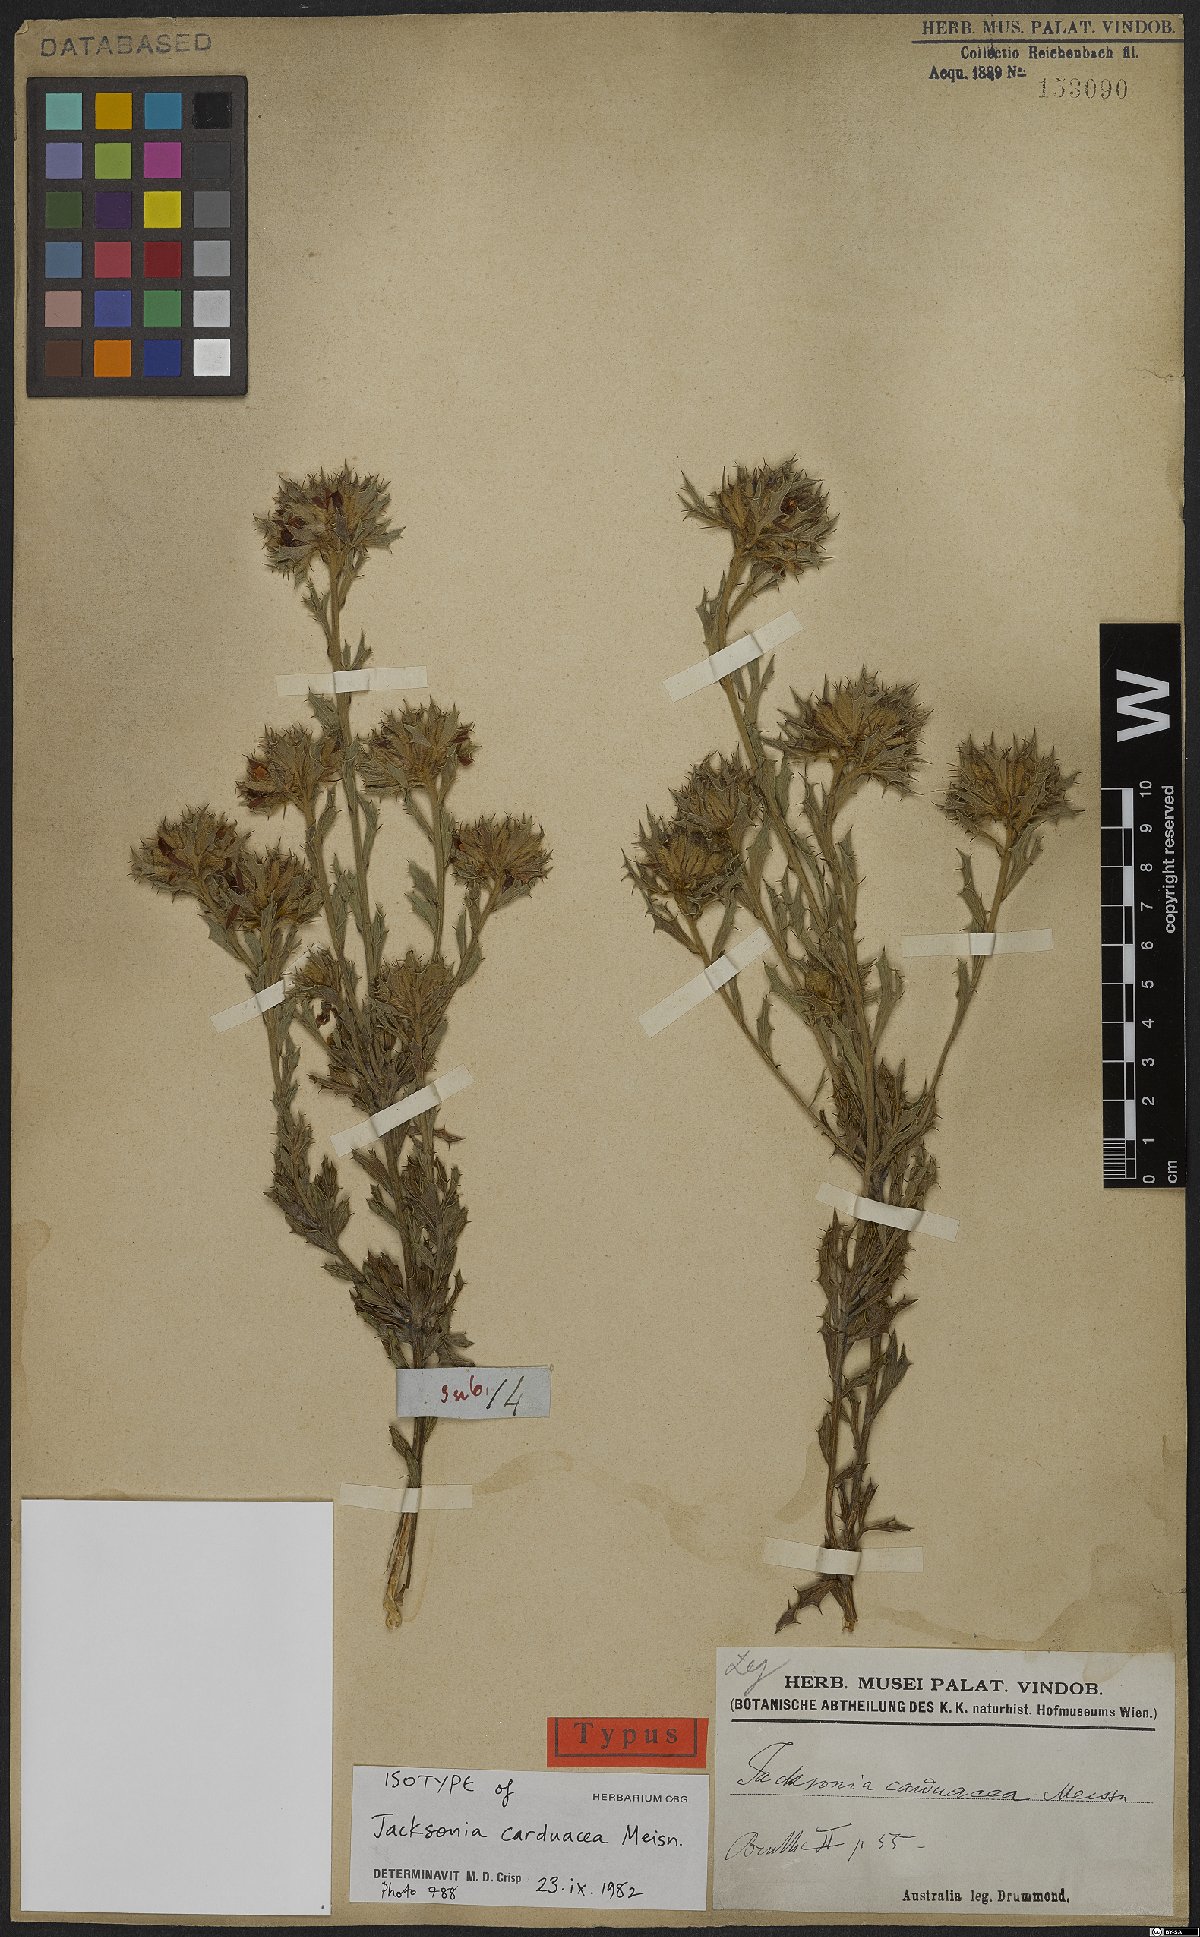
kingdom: Plantae
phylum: Tracheophyta
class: Magnoliopsida
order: Fabales
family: Fabaceae
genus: Jacksonia
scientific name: Jacksonia carduacea
